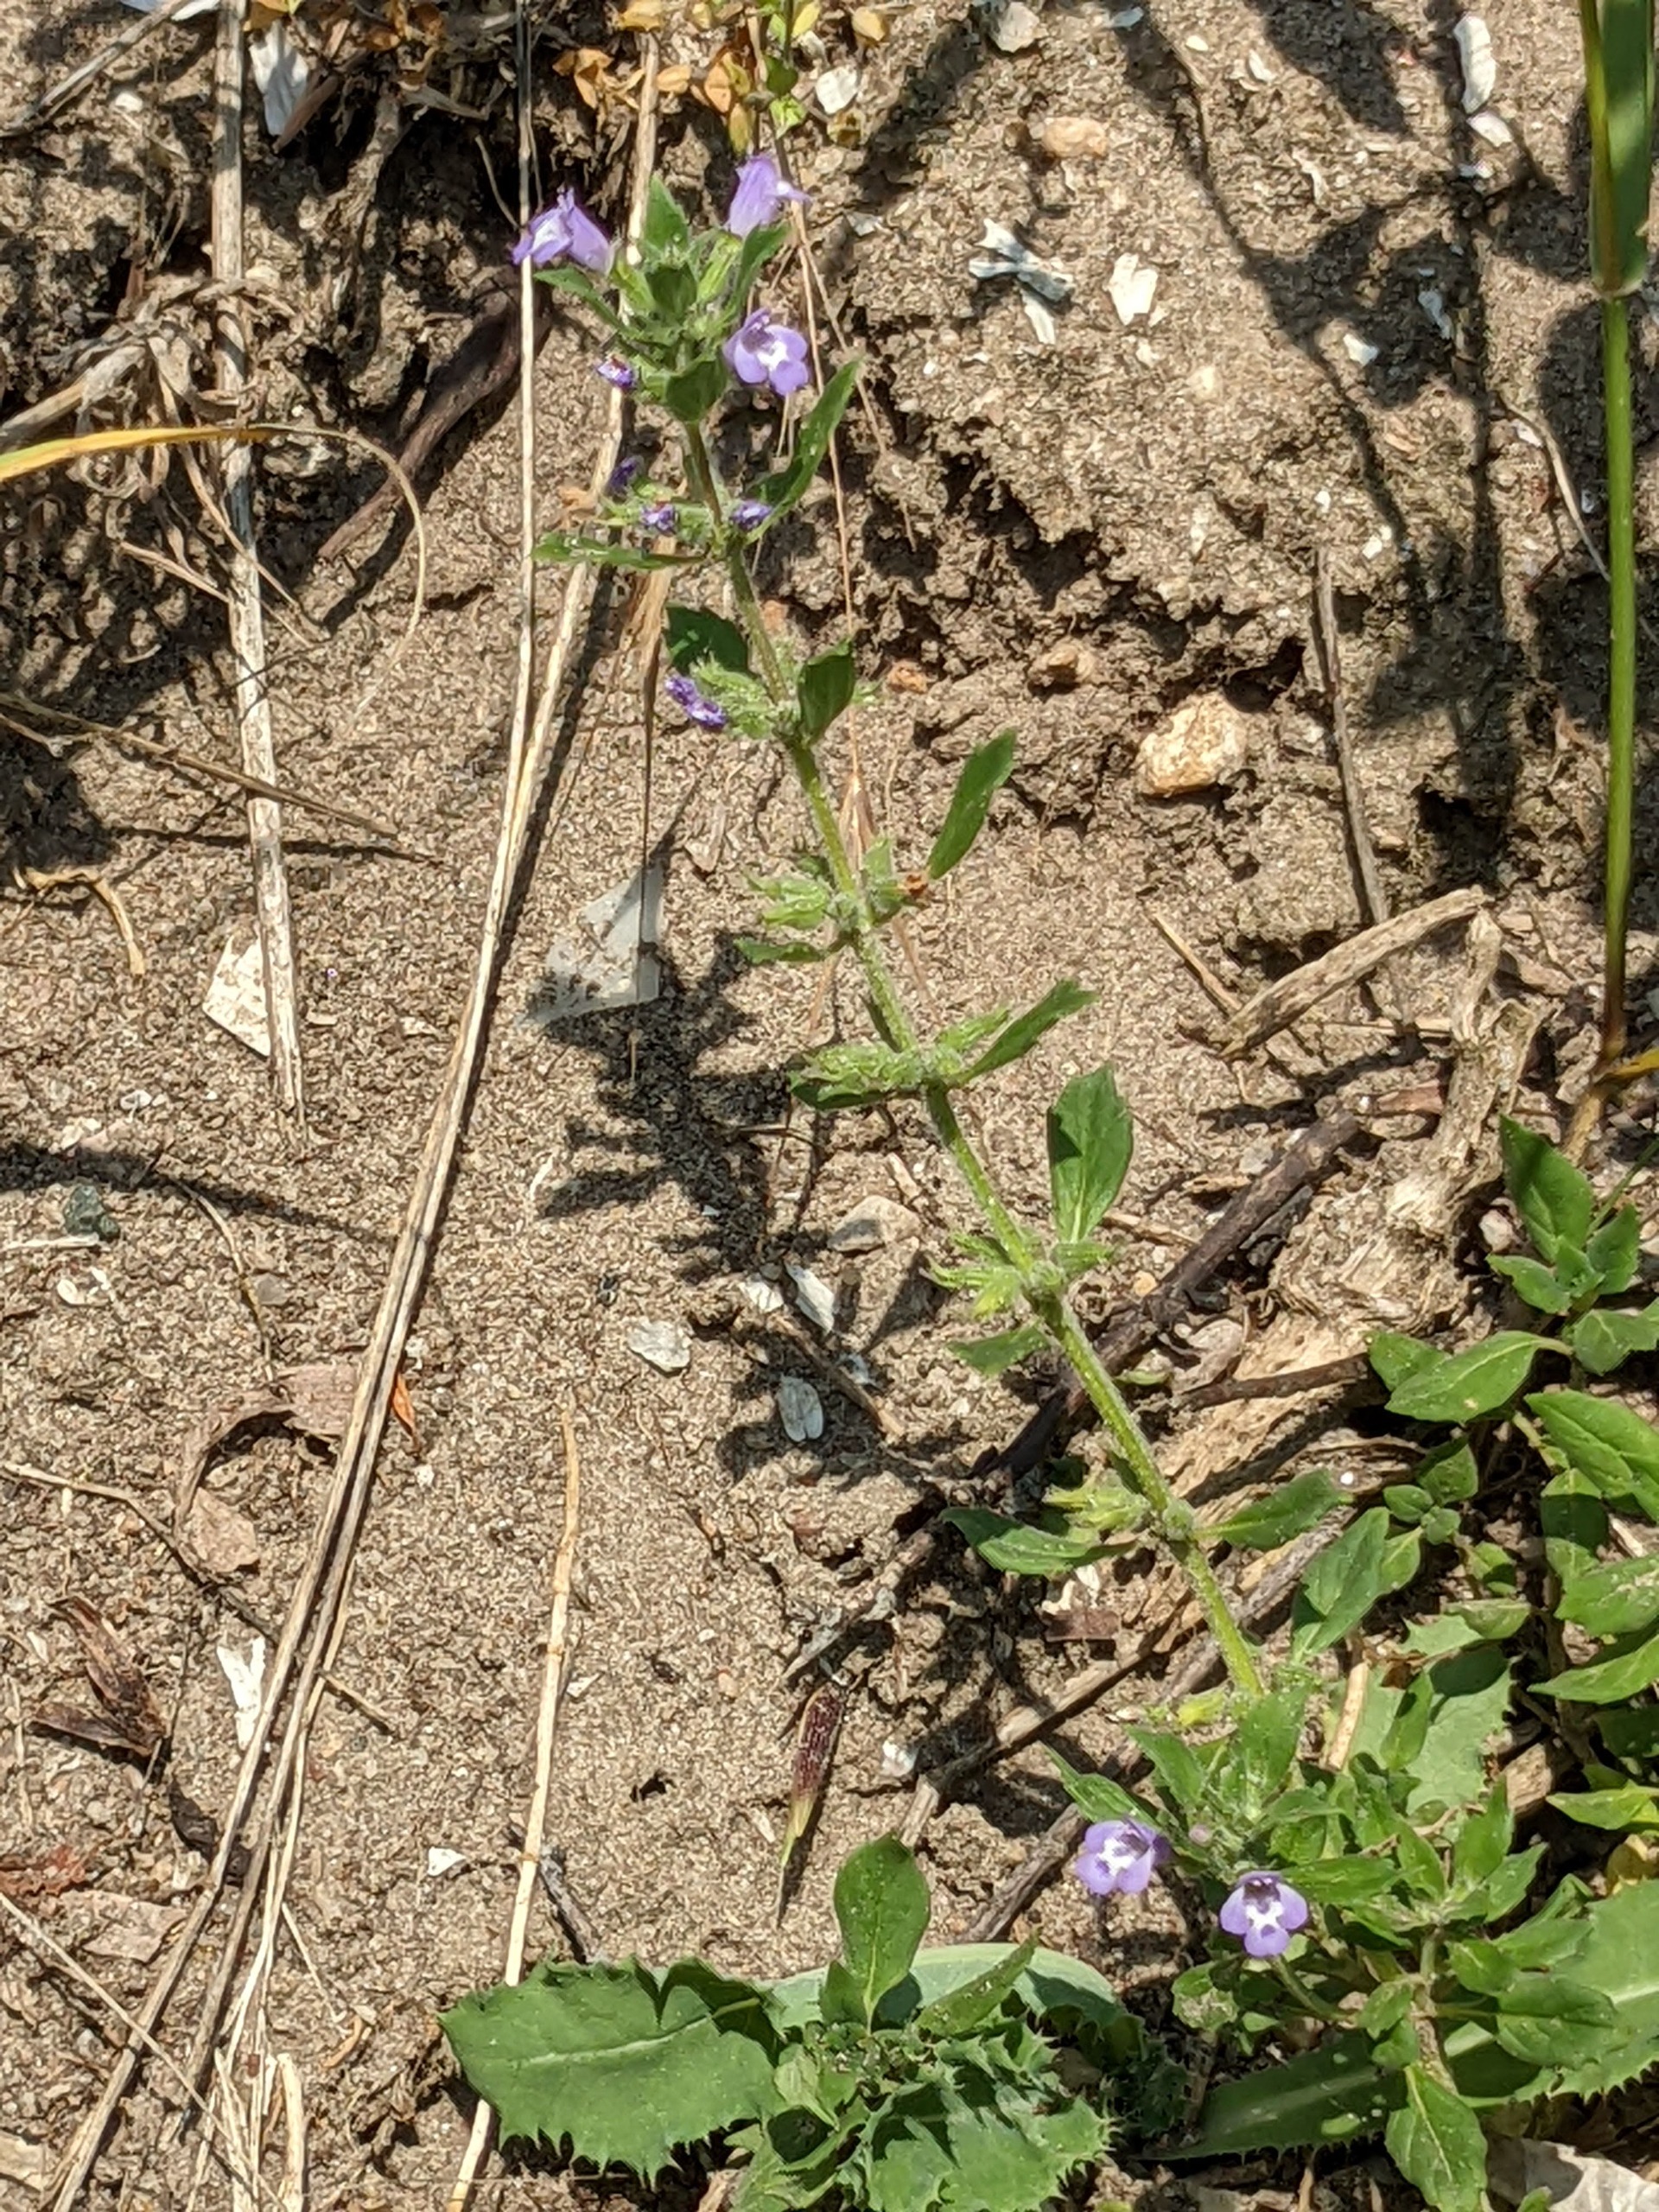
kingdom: Plantae
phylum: Tracheophyta
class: Magnoliopsida
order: Lamiales
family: Lamiaceae
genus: Clinopodium
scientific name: Clinopodium acinos
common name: Voldtimian
